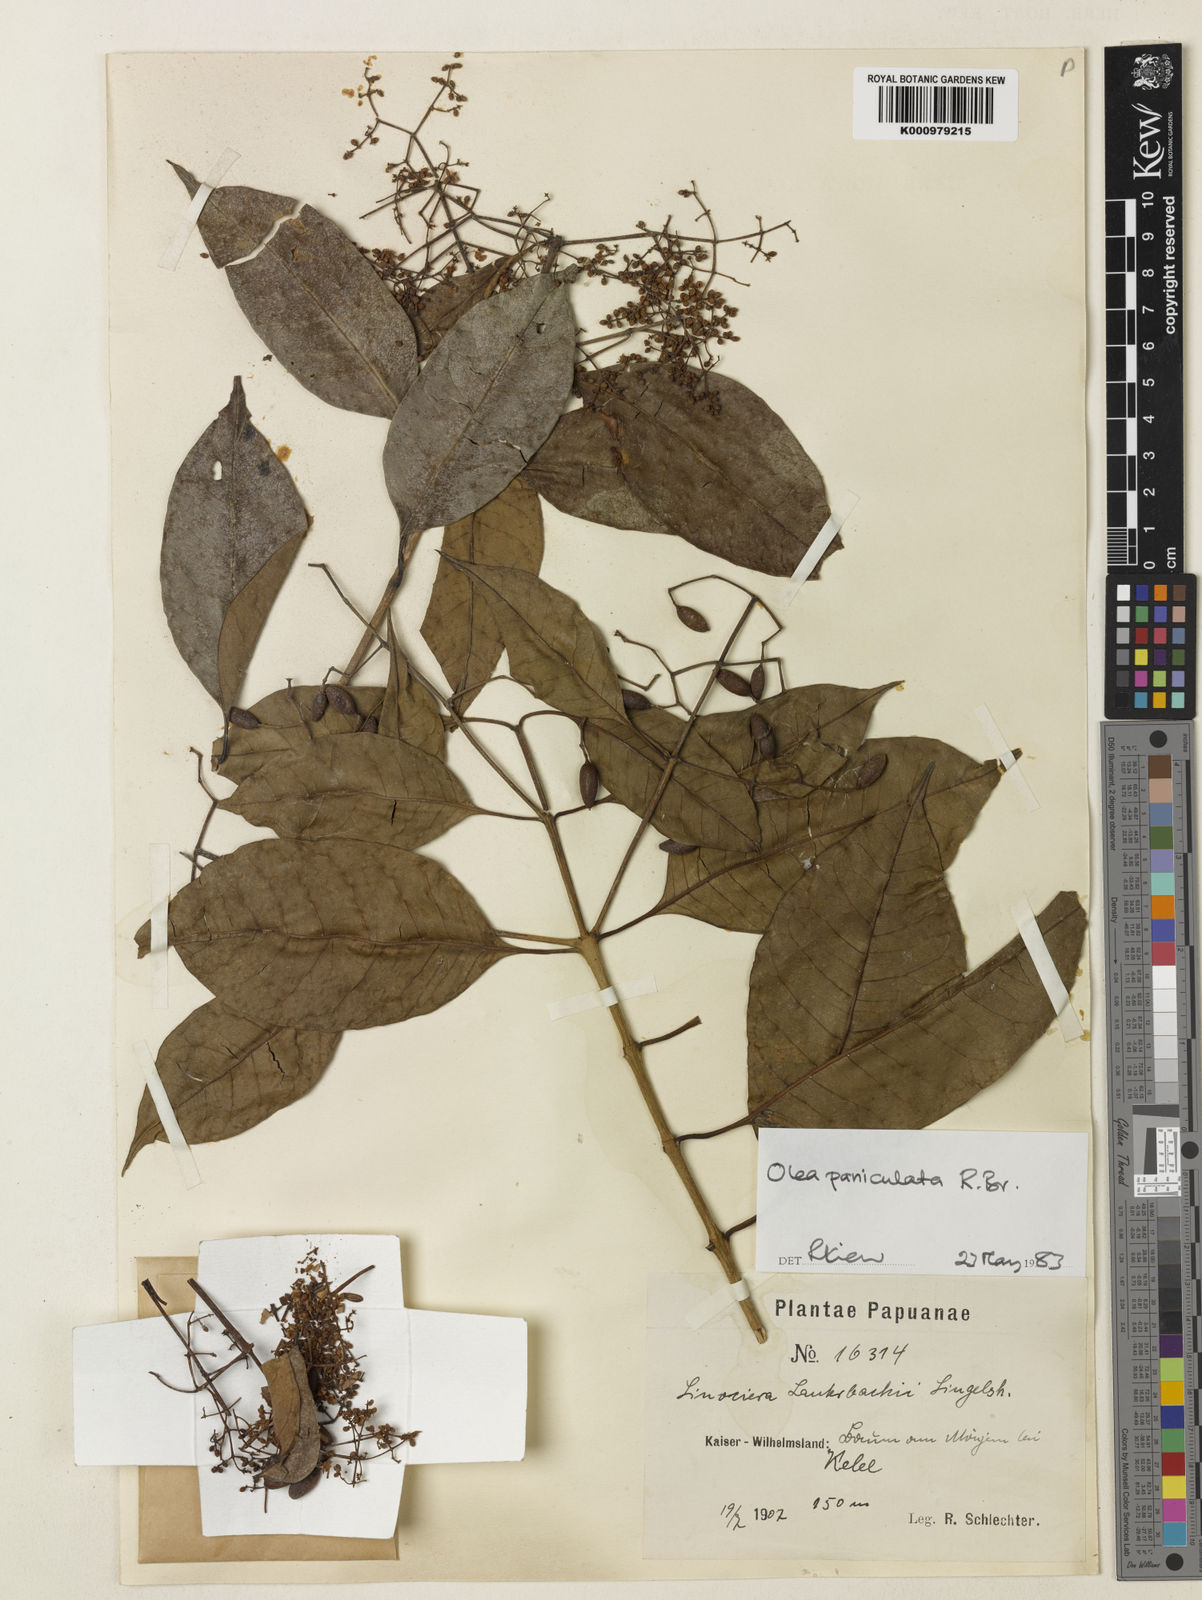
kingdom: Plantae
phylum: Tracheophyta
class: Magnoliopsida
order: Lamiales
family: Oleaceae
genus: Chionanthus
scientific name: Chionanthus ramiflorus
